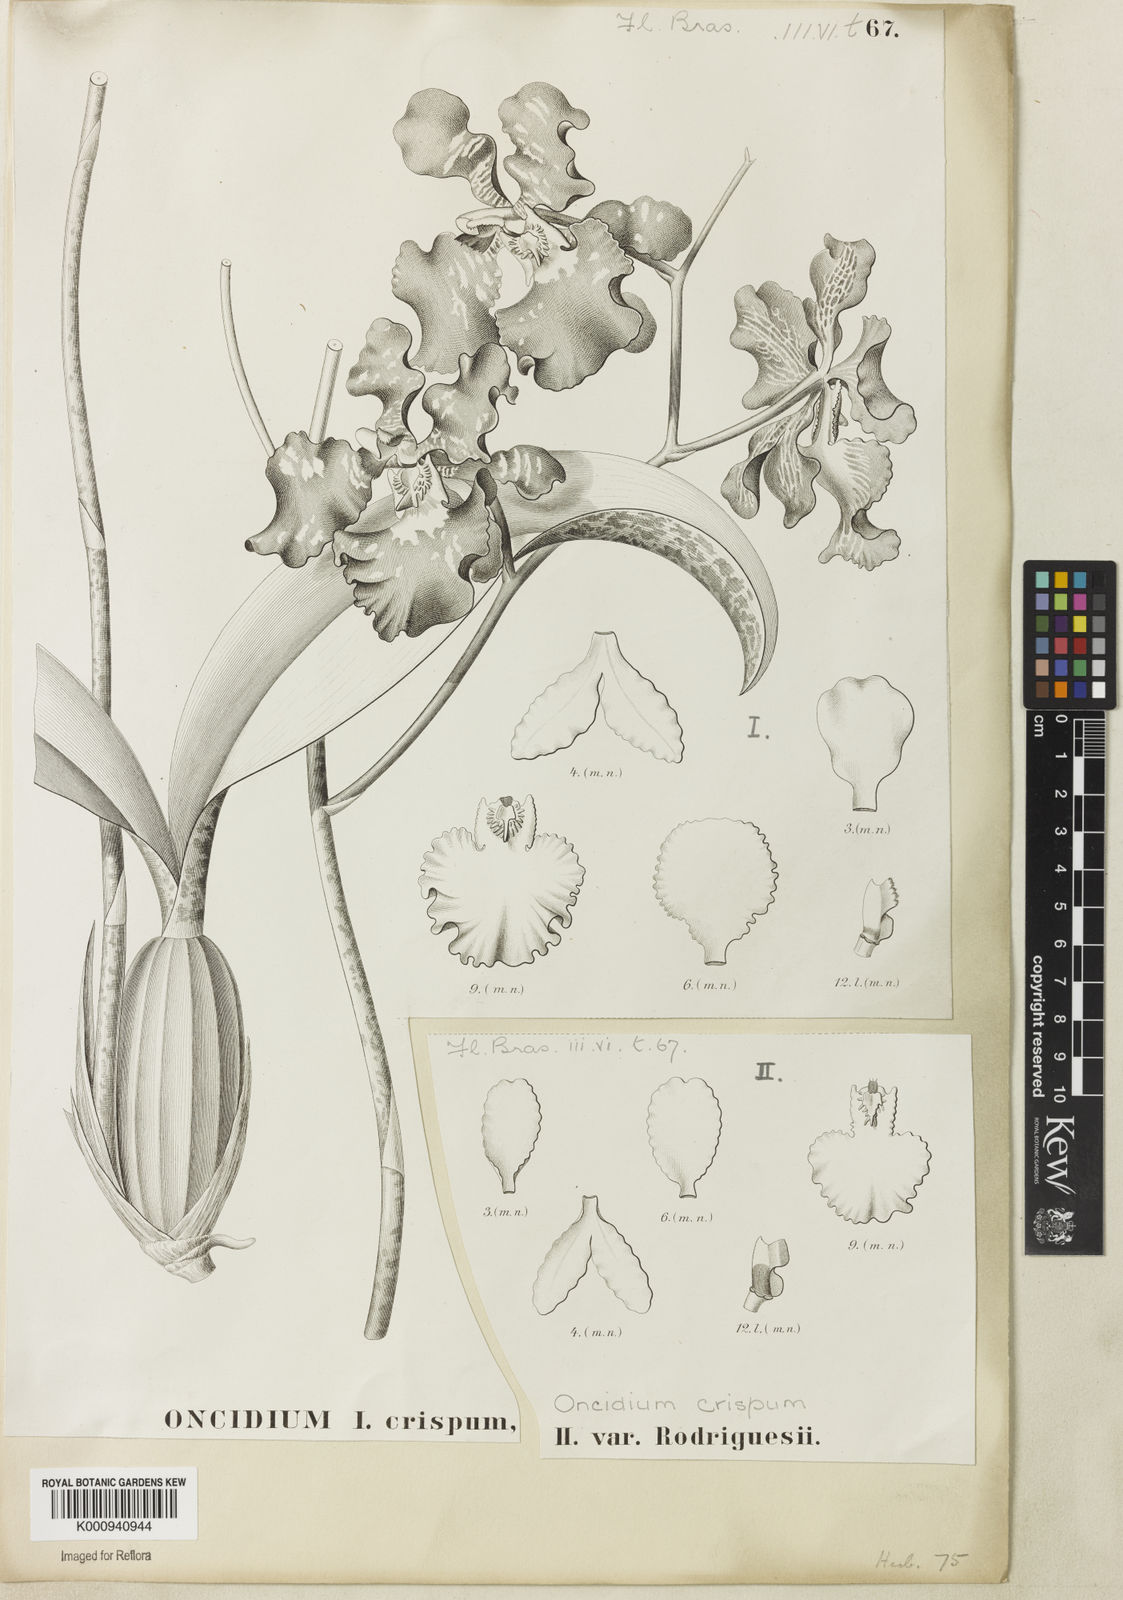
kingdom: Plantae
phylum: Tracheophyta
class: Liliopsida
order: Asparagales
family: Orchidaceae
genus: Gomesa
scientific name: Gomesa imperatoris-maximiliani
